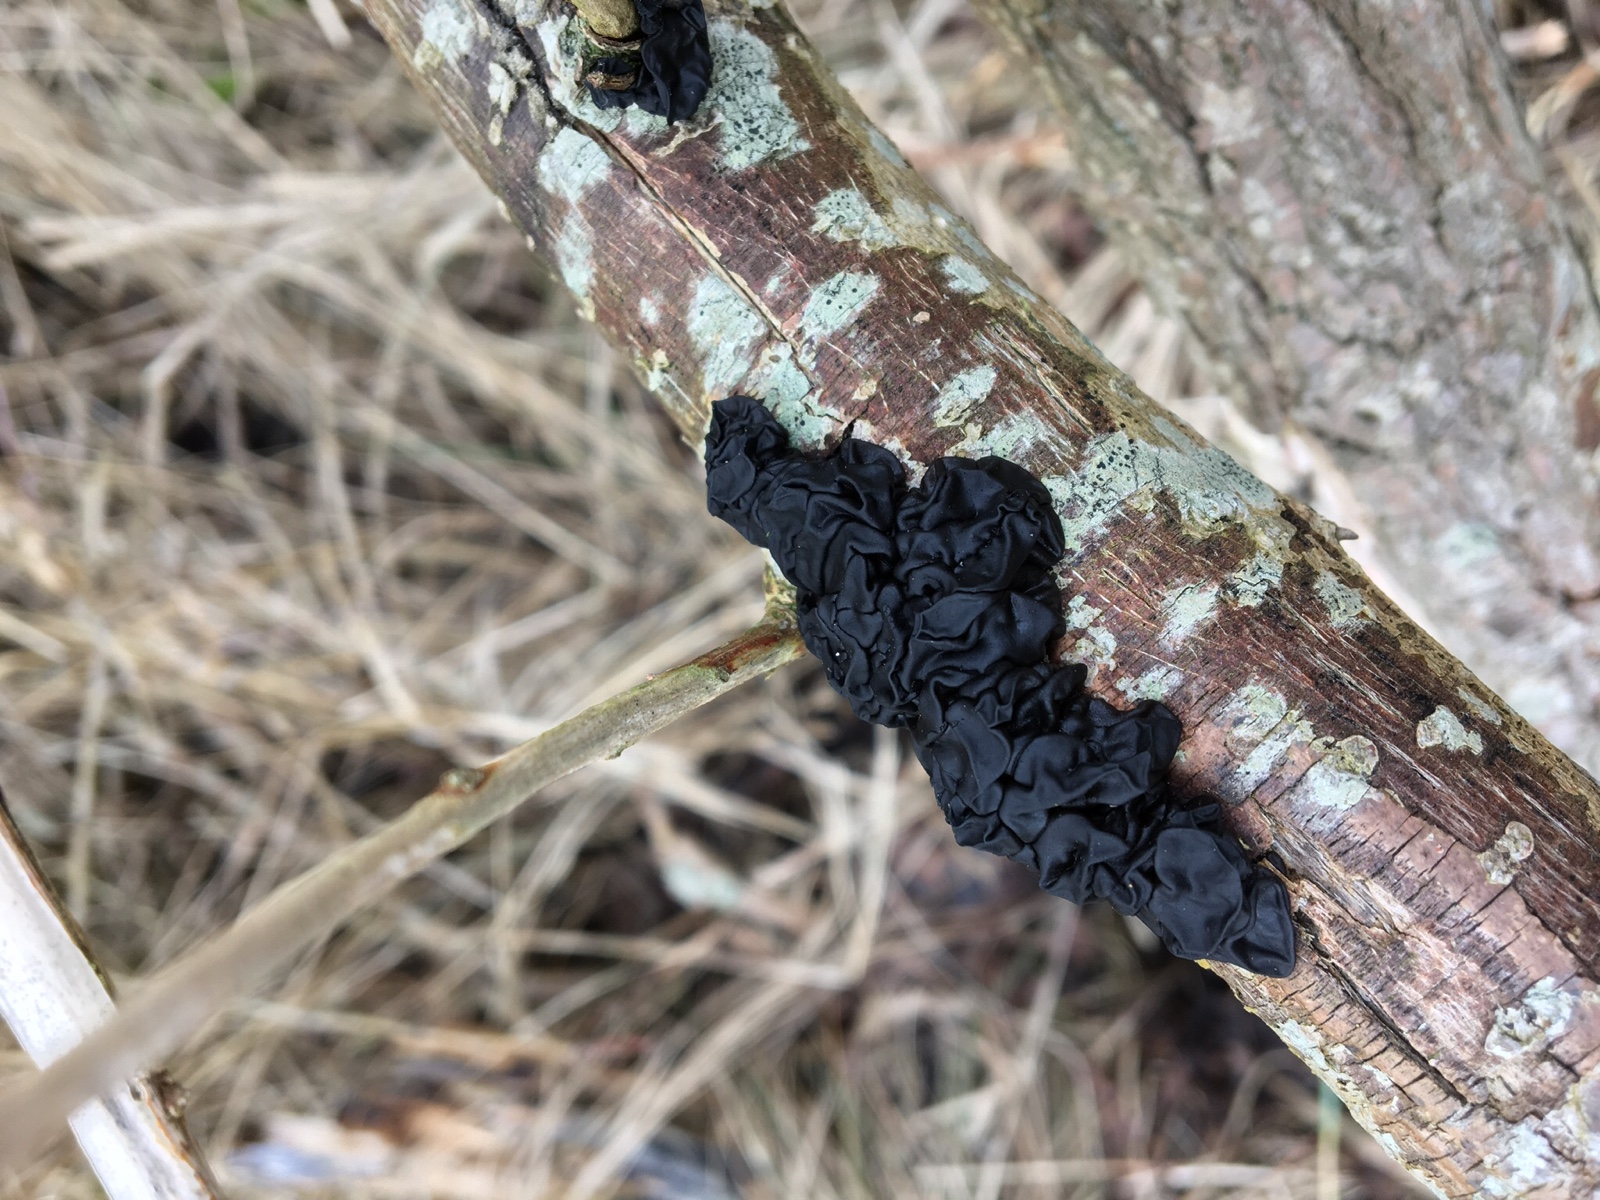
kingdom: Fungi
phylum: Basidiomycota
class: Agaricomycetes
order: Auriculariales
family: Auriculariaceae
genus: Exidia
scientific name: Exidia nigricans
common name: almindelig bævretop
